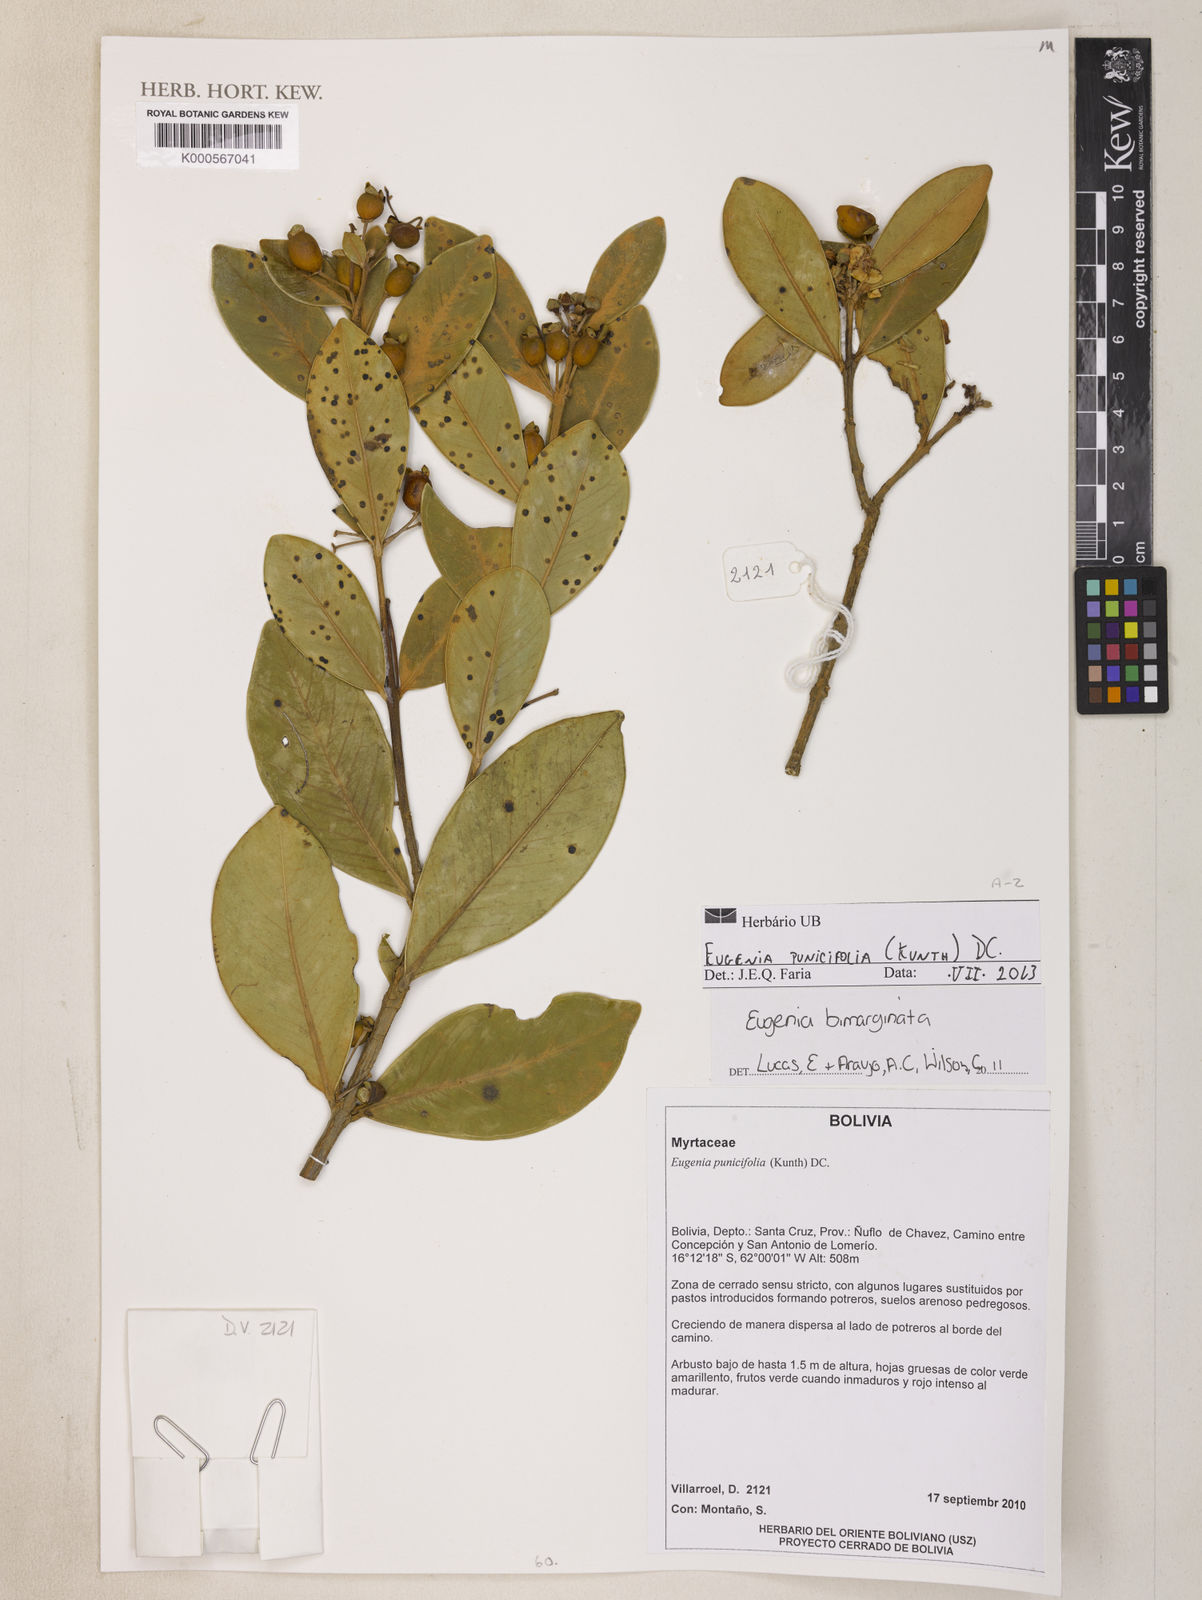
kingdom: Plantae
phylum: Tracheophyta
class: Magnoliopsida
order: Myrtales
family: Myrtaceae
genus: Eugenia
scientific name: Eugenia punicifolia
